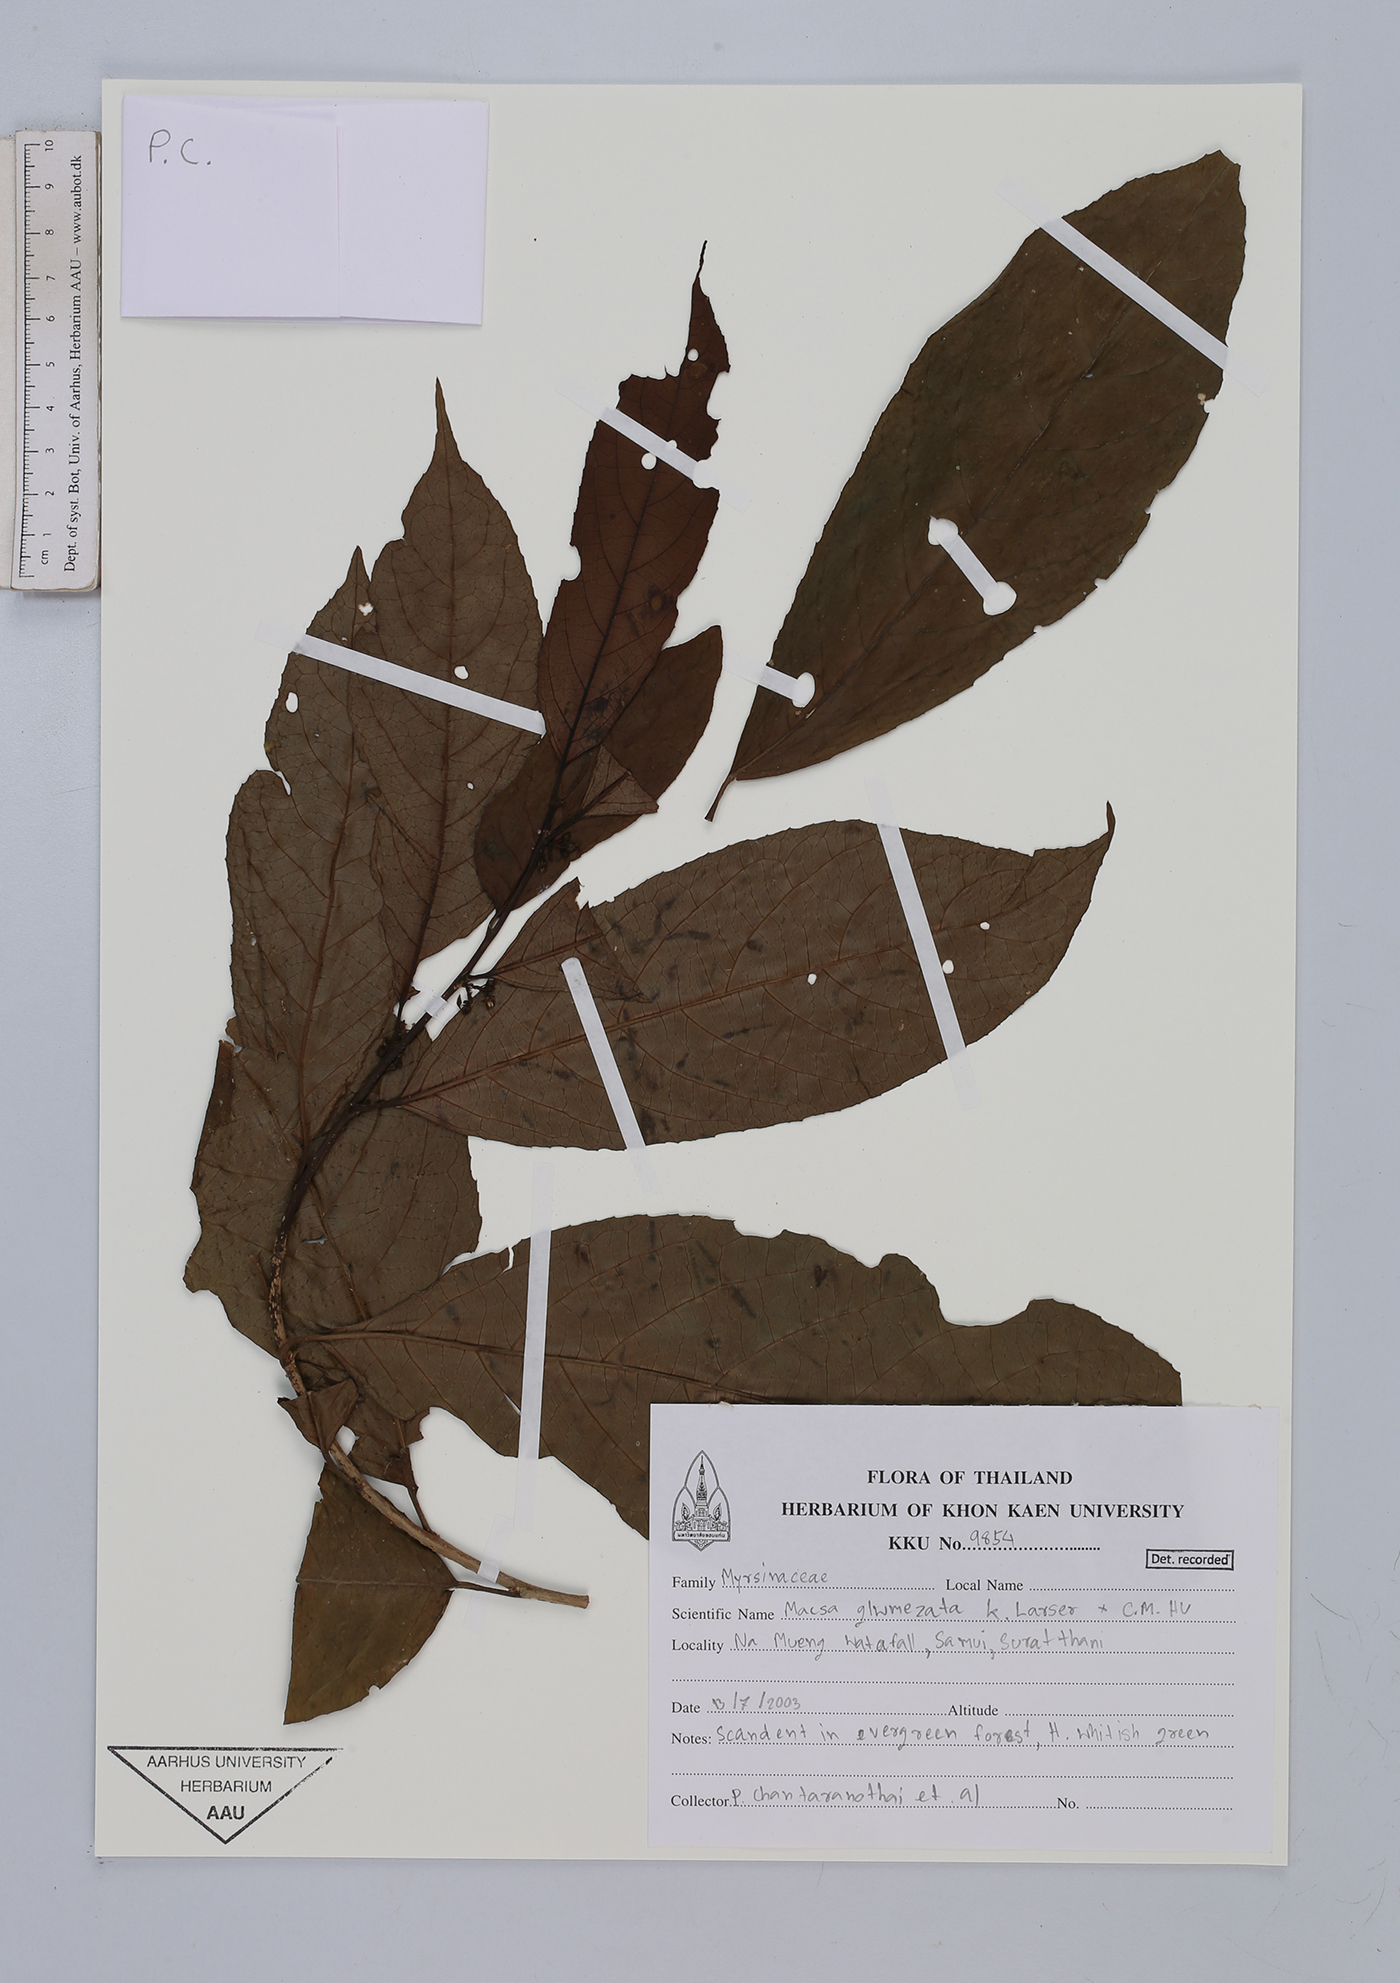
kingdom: Plantae
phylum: Tracheophyta
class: Magnoliopsida
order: Ericales
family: Primulaceae
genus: Maesa
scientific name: Maesa glomerata
